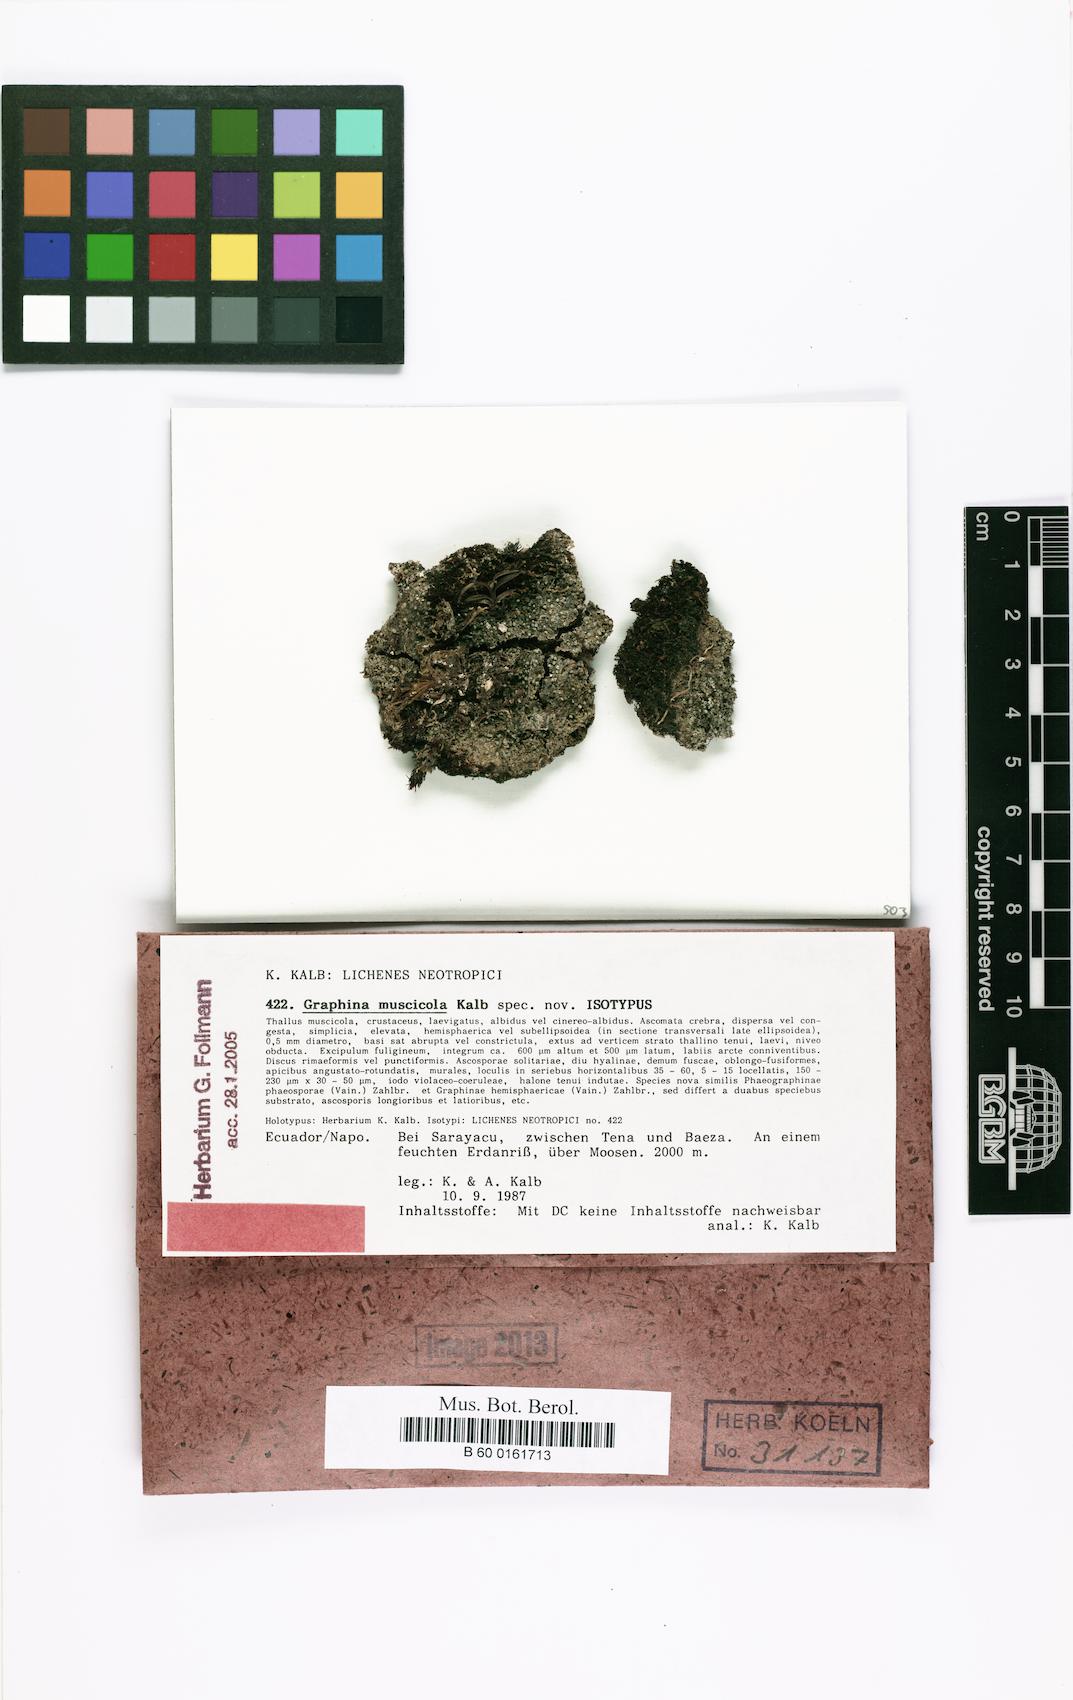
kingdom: Fungi
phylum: Ascomycota
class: Lecanoromycetes
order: Ostropales
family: Graphidaceae
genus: Graphis
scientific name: Graphis muscicola
